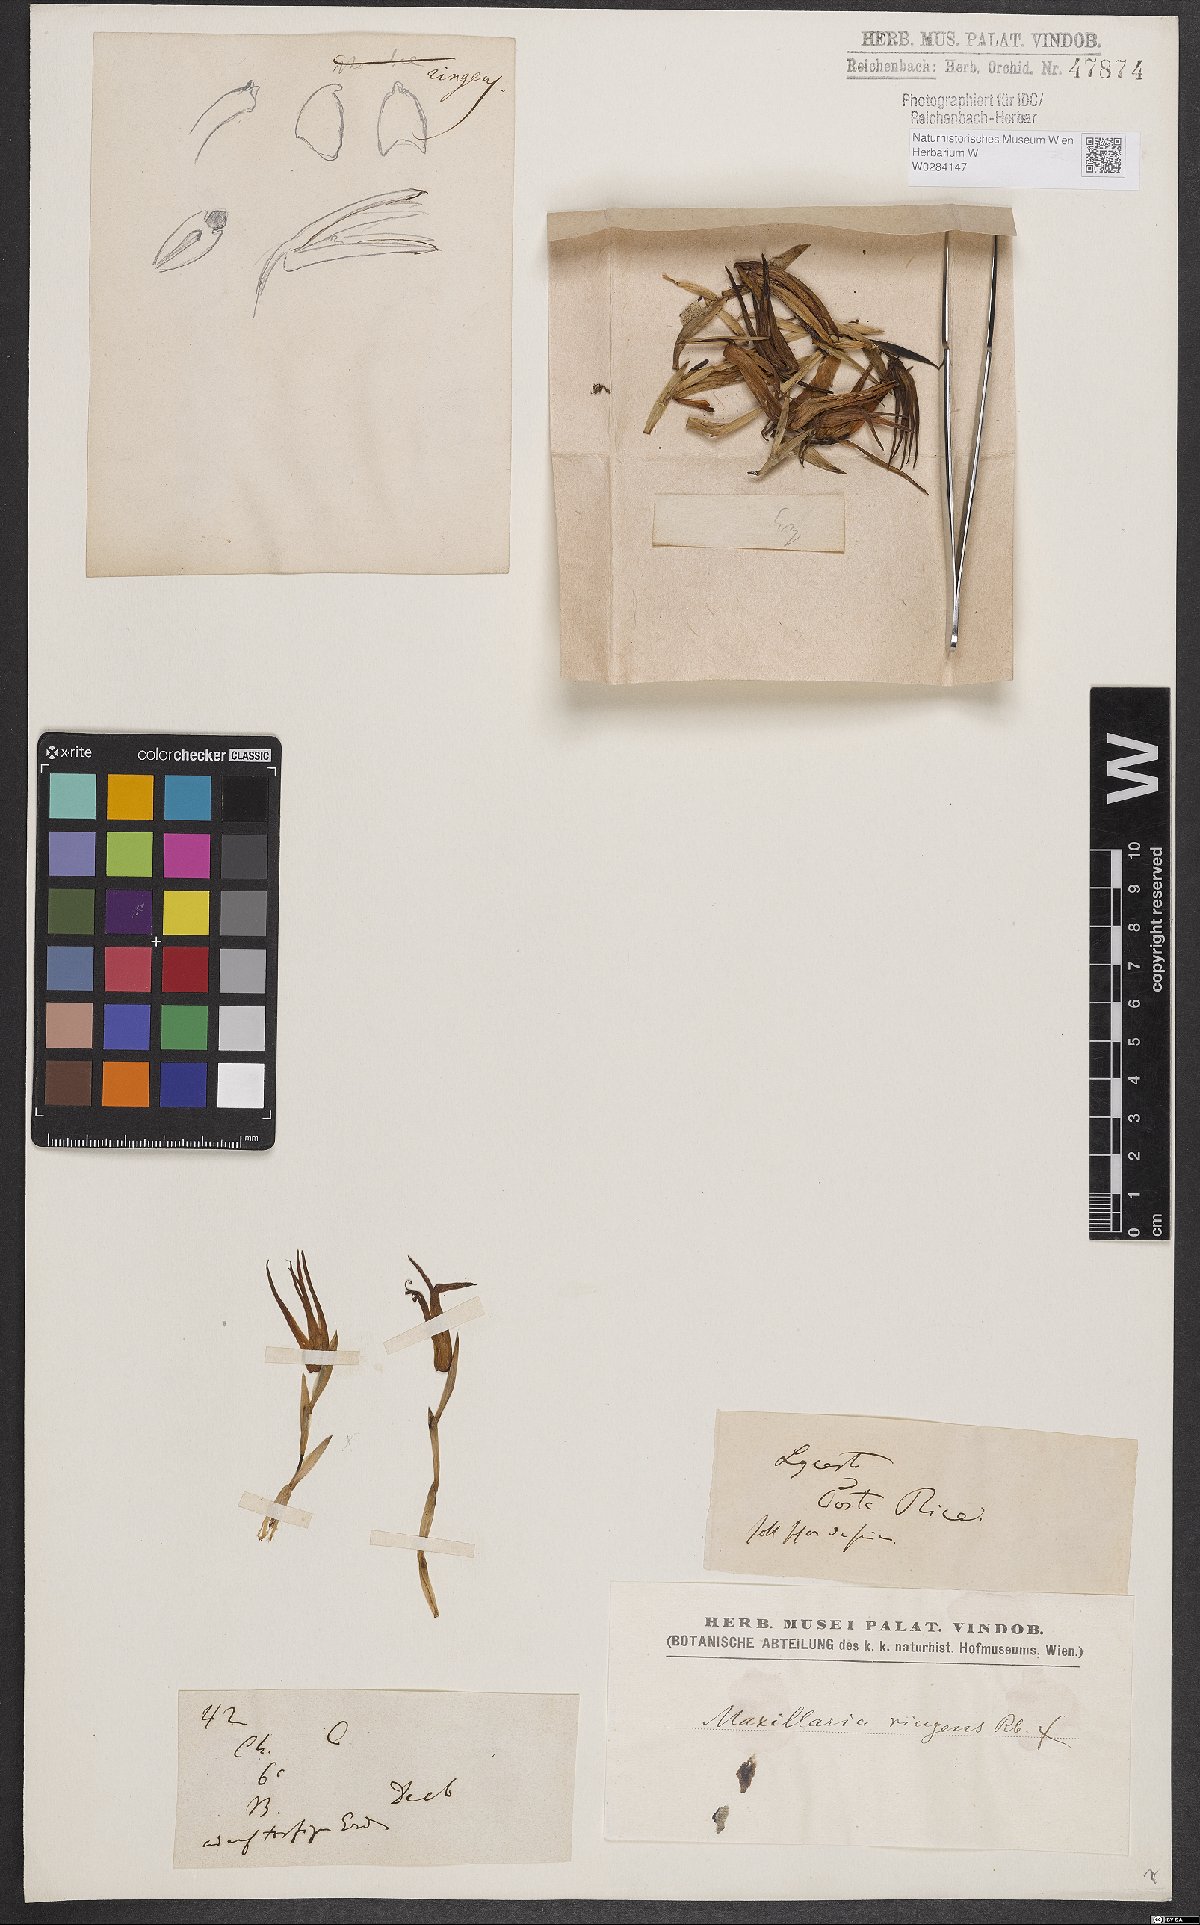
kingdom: Plantae
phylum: Tracheophyta
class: Liliopsida
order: Asparagales
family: Orchidaceae
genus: Maxillaria
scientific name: Maxillaria ringens
